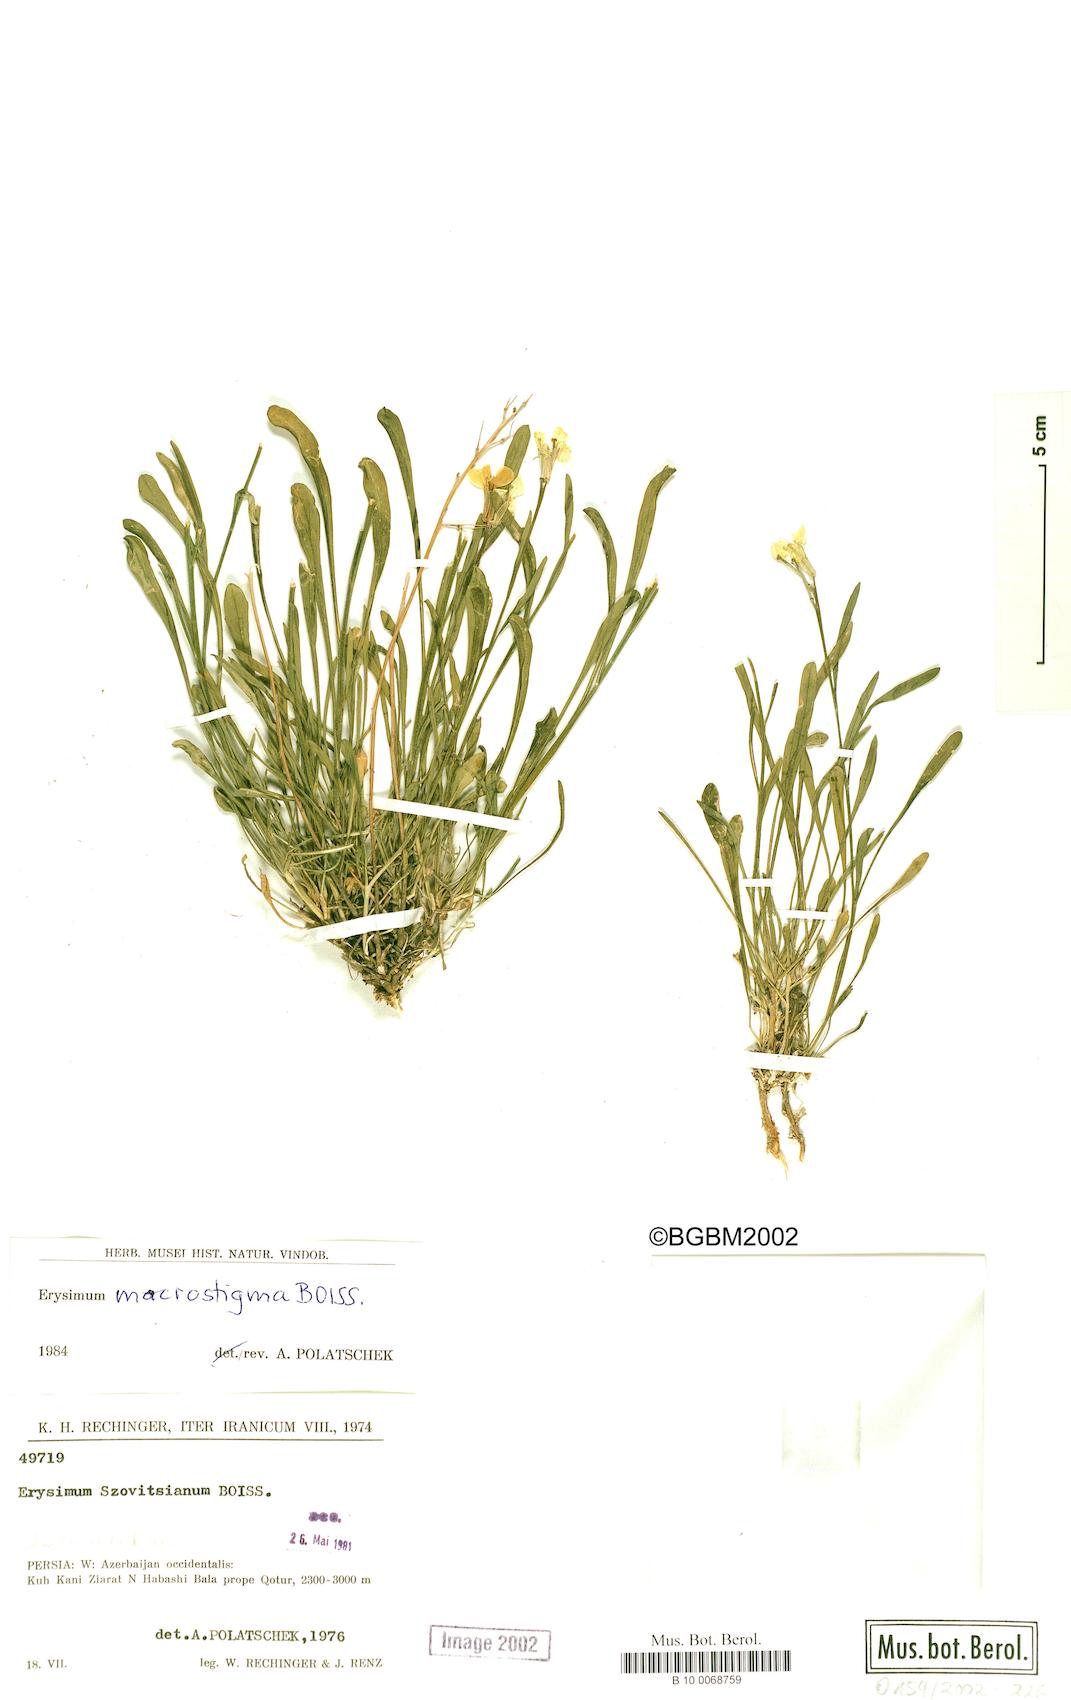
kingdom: Plantae
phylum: Tracheophyta
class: Magnoliopsida
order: Brassicales
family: Brassicaceae
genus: Erysimum
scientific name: Erysimum macrostigma
